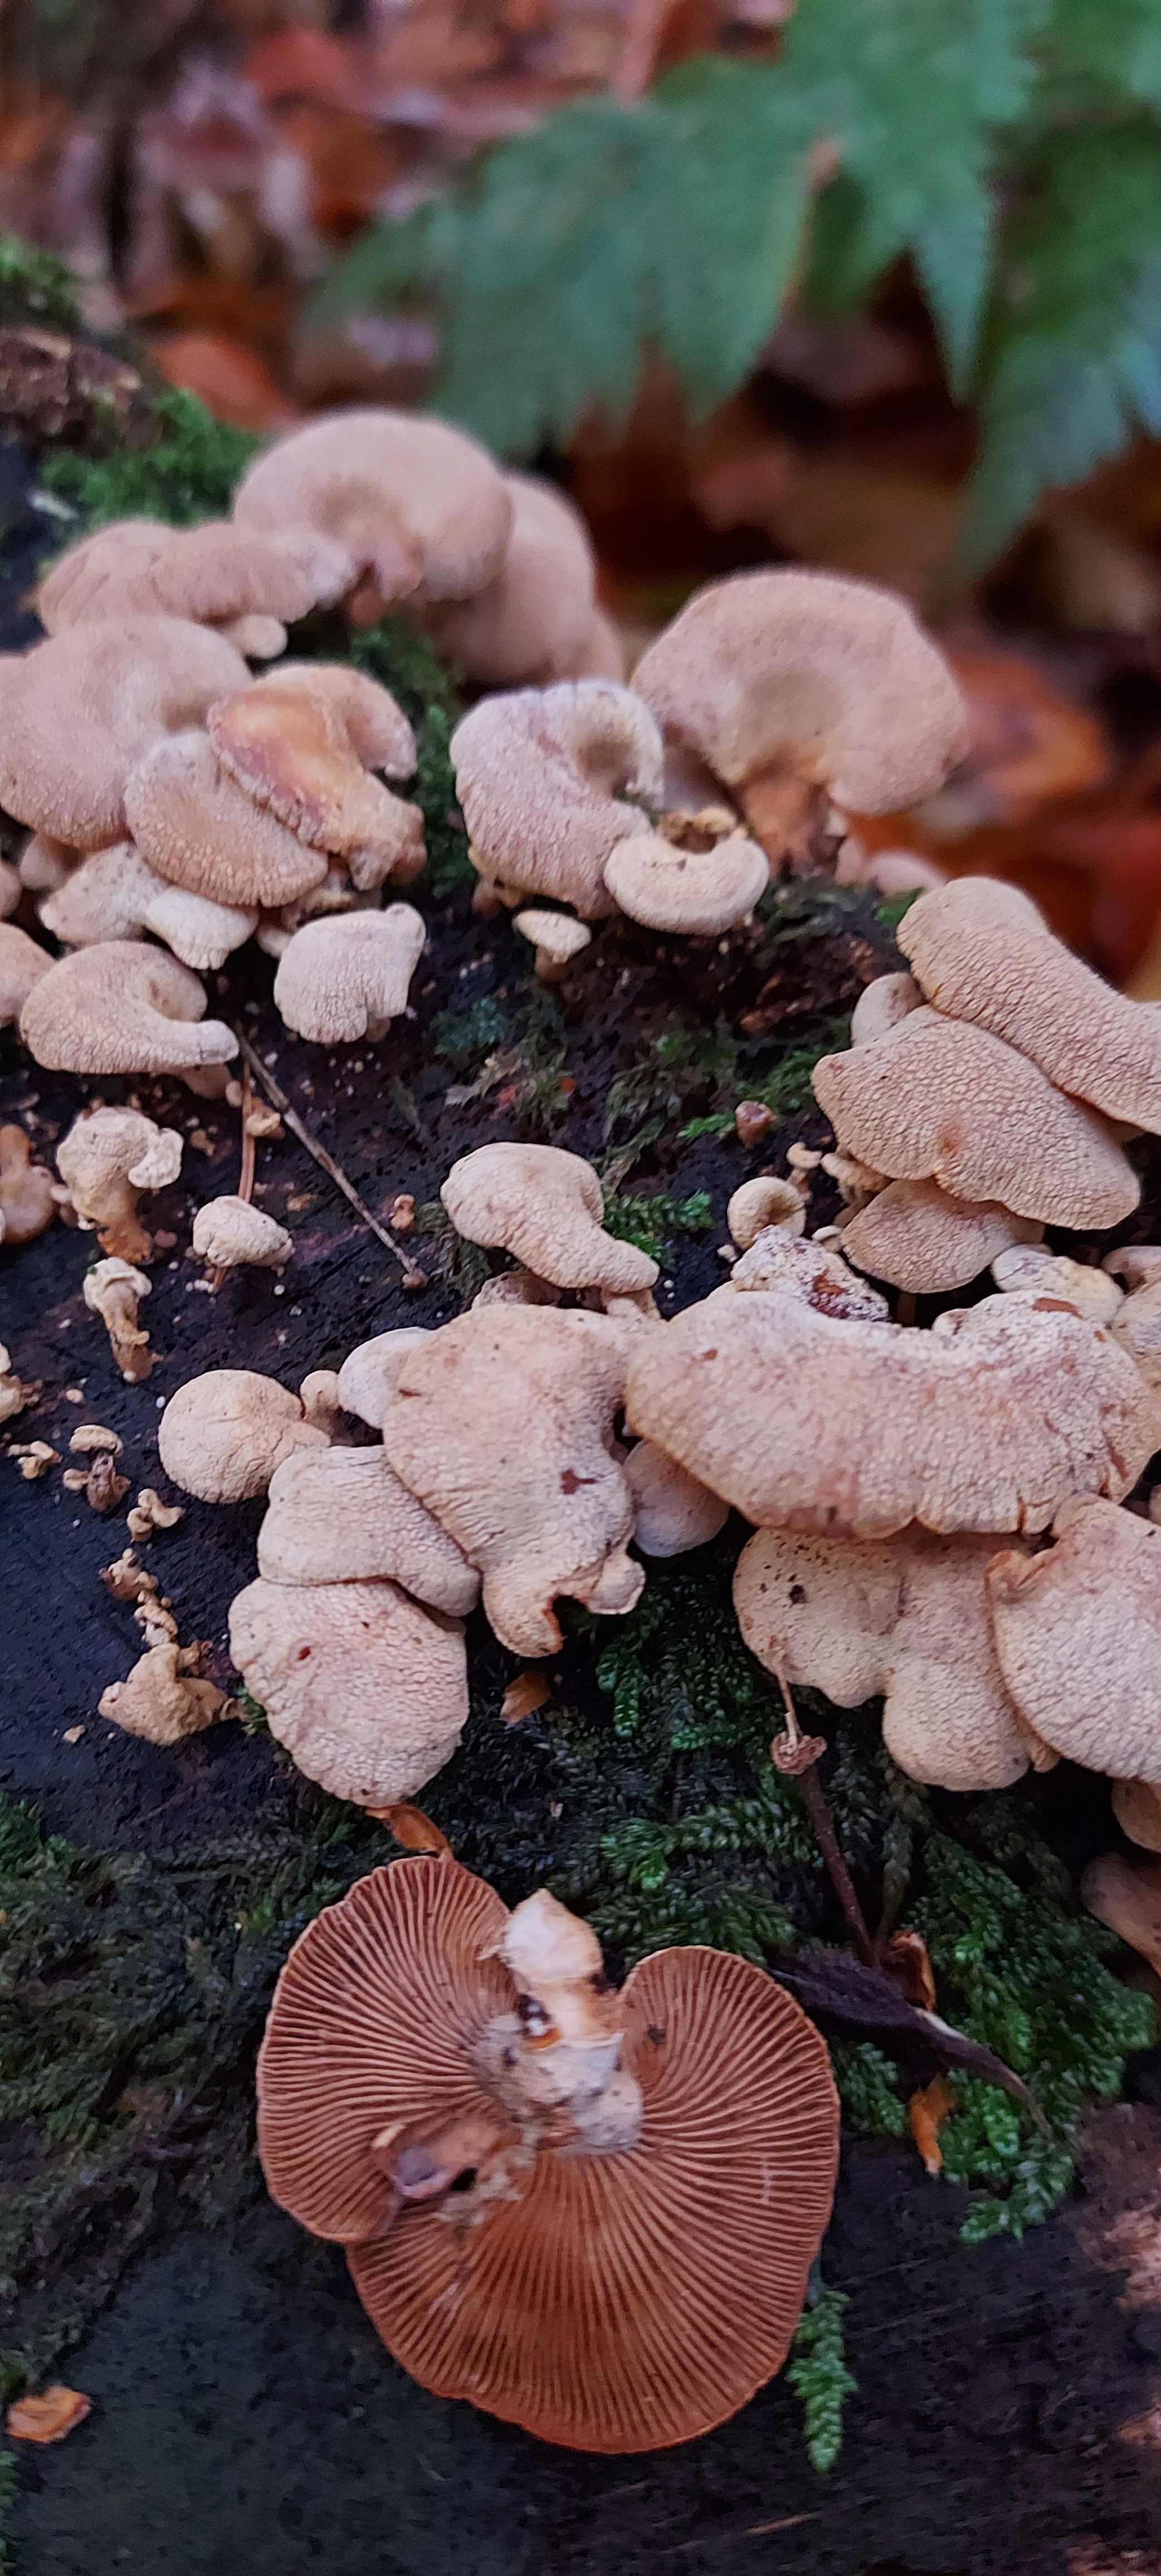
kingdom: Fungi
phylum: Basidiomycota
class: Agaricomycetes
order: Agaricales
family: Mycenaceae
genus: Panellus
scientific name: Panellus stipticus
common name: kliddet epaulethat
